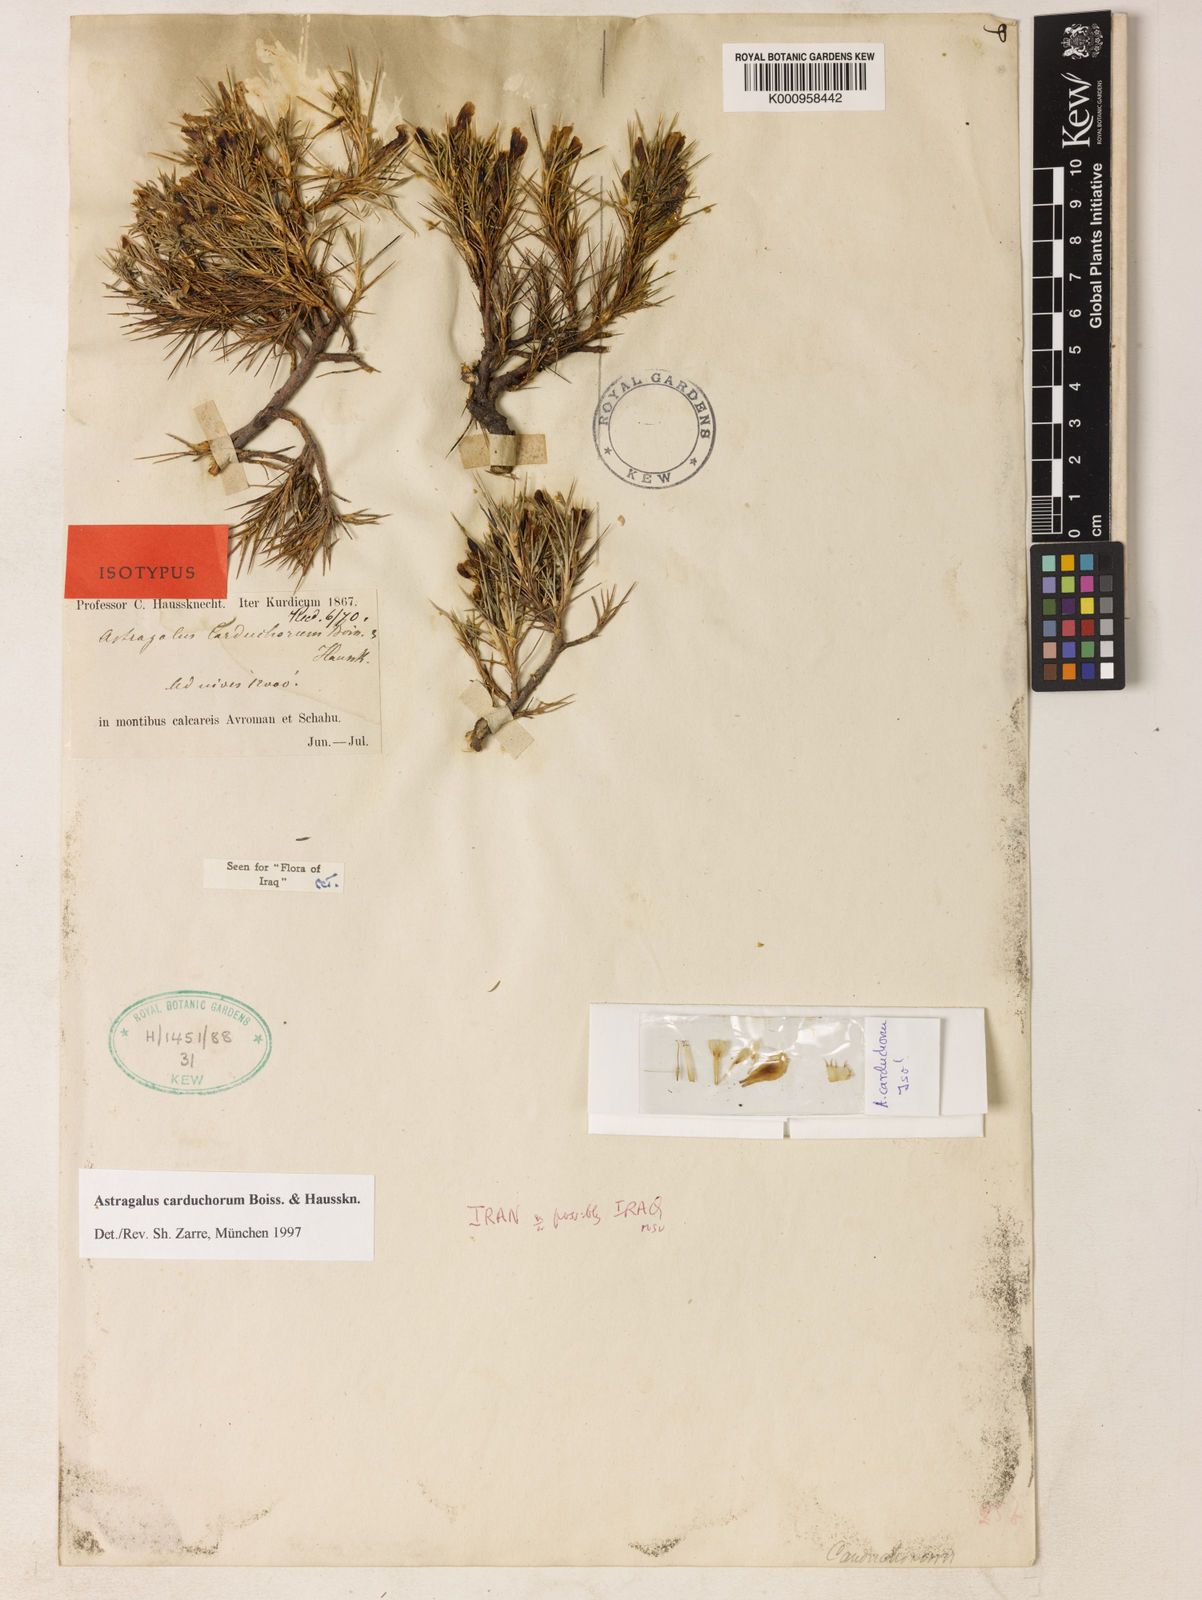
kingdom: Plantae
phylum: Tracheophyta
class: Magnoliopsida
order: Fabales
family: Fabaceae
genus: Astragalus
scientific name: Astragalus carduchorum
